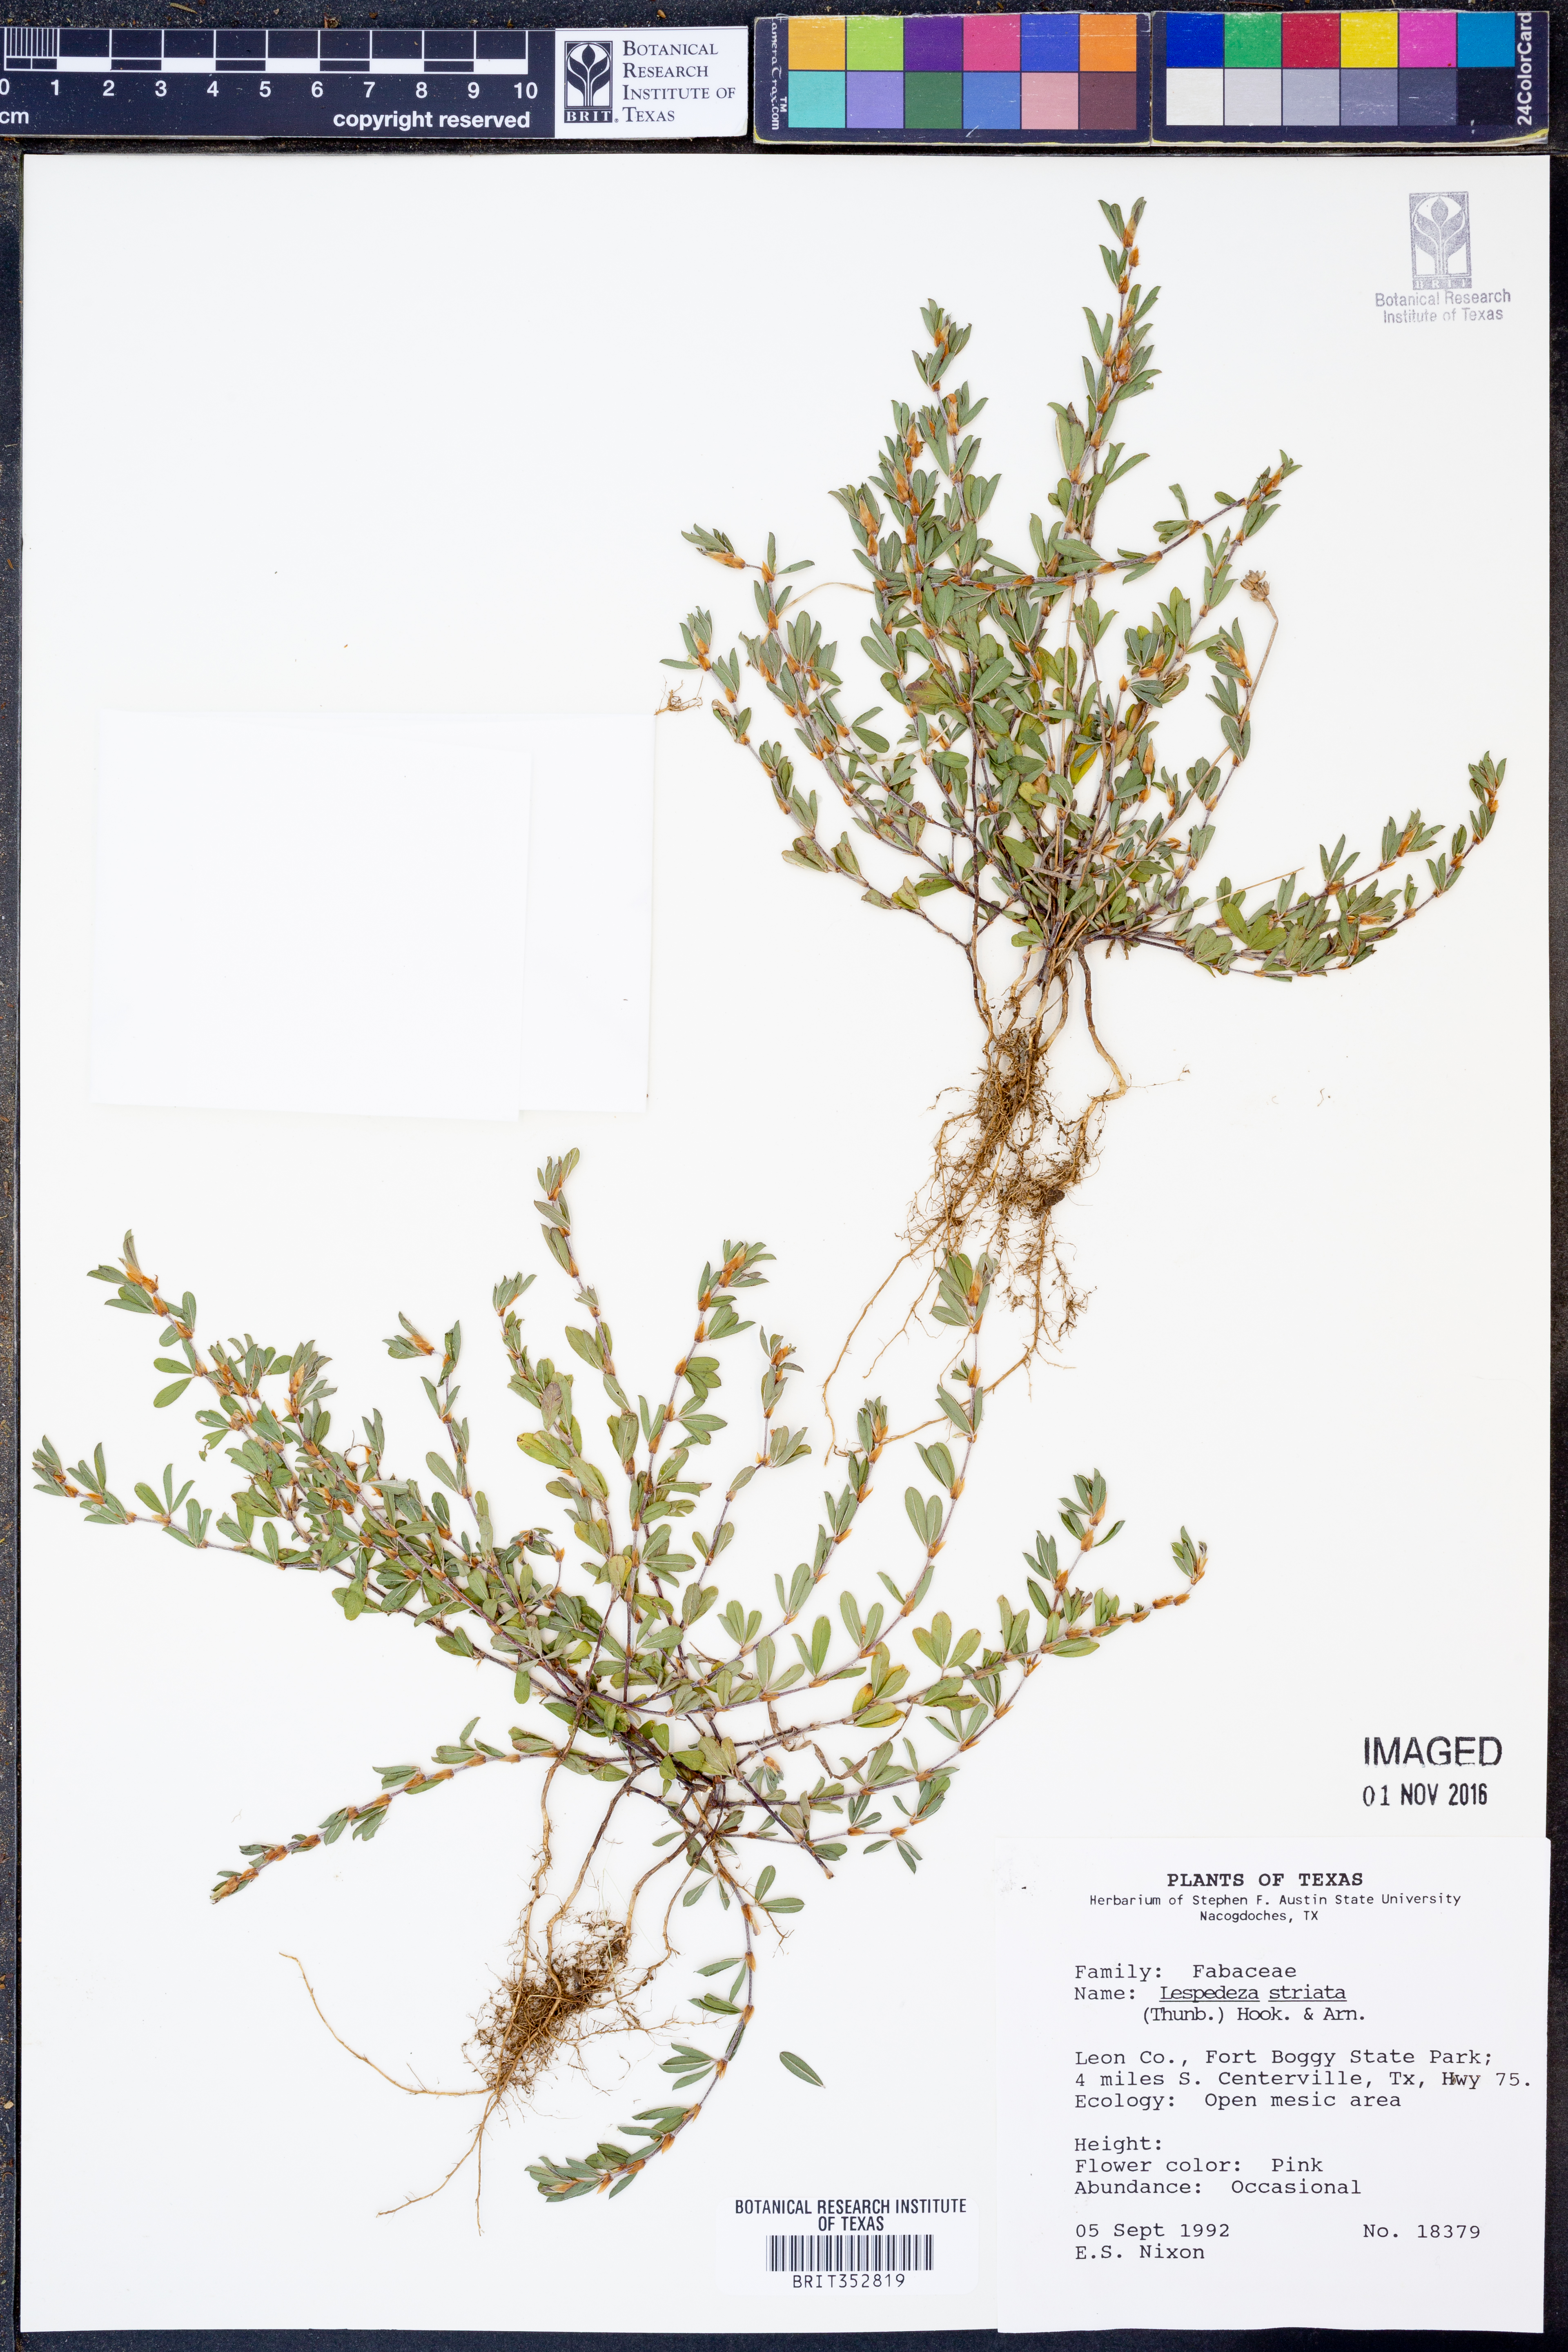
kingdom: Plantae
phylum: Tracheophyta
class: Magnoliopsida
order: Fabales
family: Fabaceae
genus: Kummerowia
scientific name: Kummerowia striata
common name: Japanese clover
